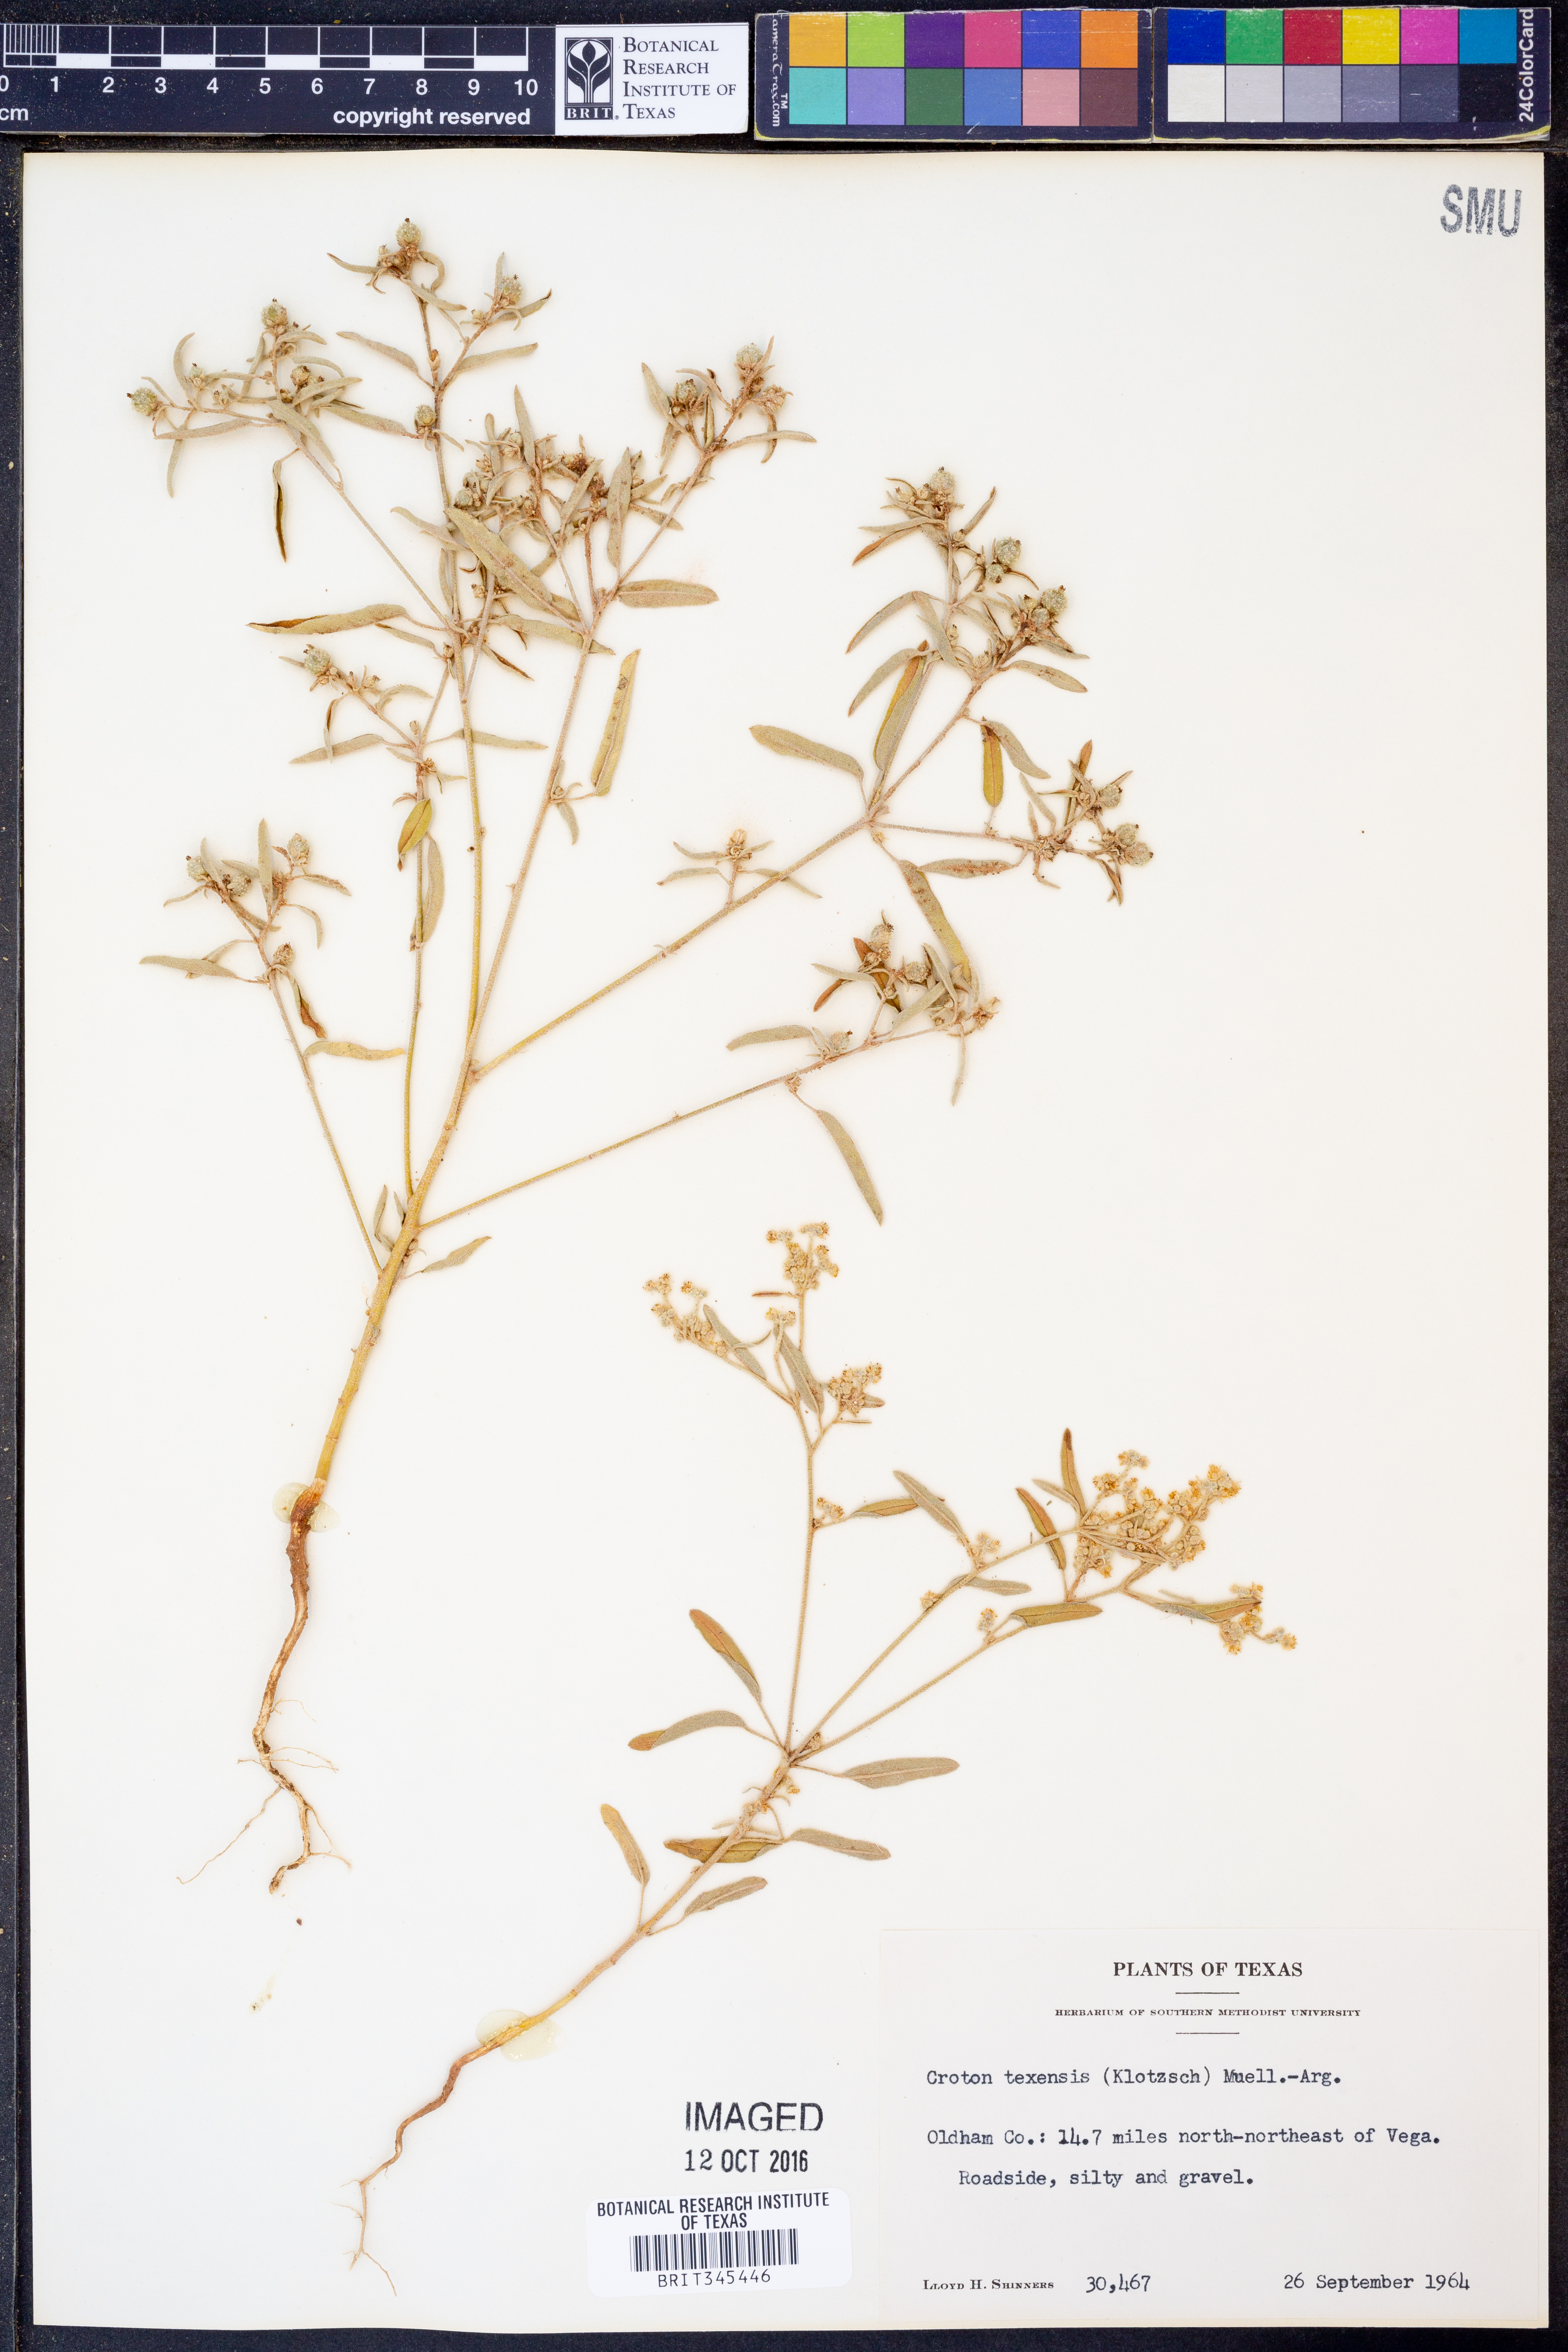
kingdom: Plantae
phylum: Tracheophyta
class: Magnoliopsida
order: Malpighiales
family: Euphorbiaceae
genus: Croton
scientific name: Croton texensis
